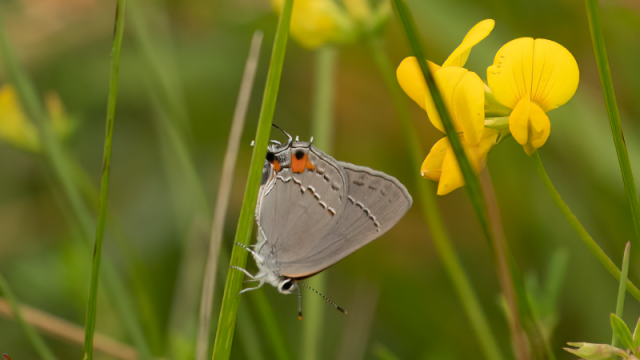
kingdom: Animalia
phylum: Arthropoda
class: Insecta
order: Lepidoptera
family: Lycaenidae
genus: Strymon
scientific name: Strymon melinus
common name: Gray Hairstreak
